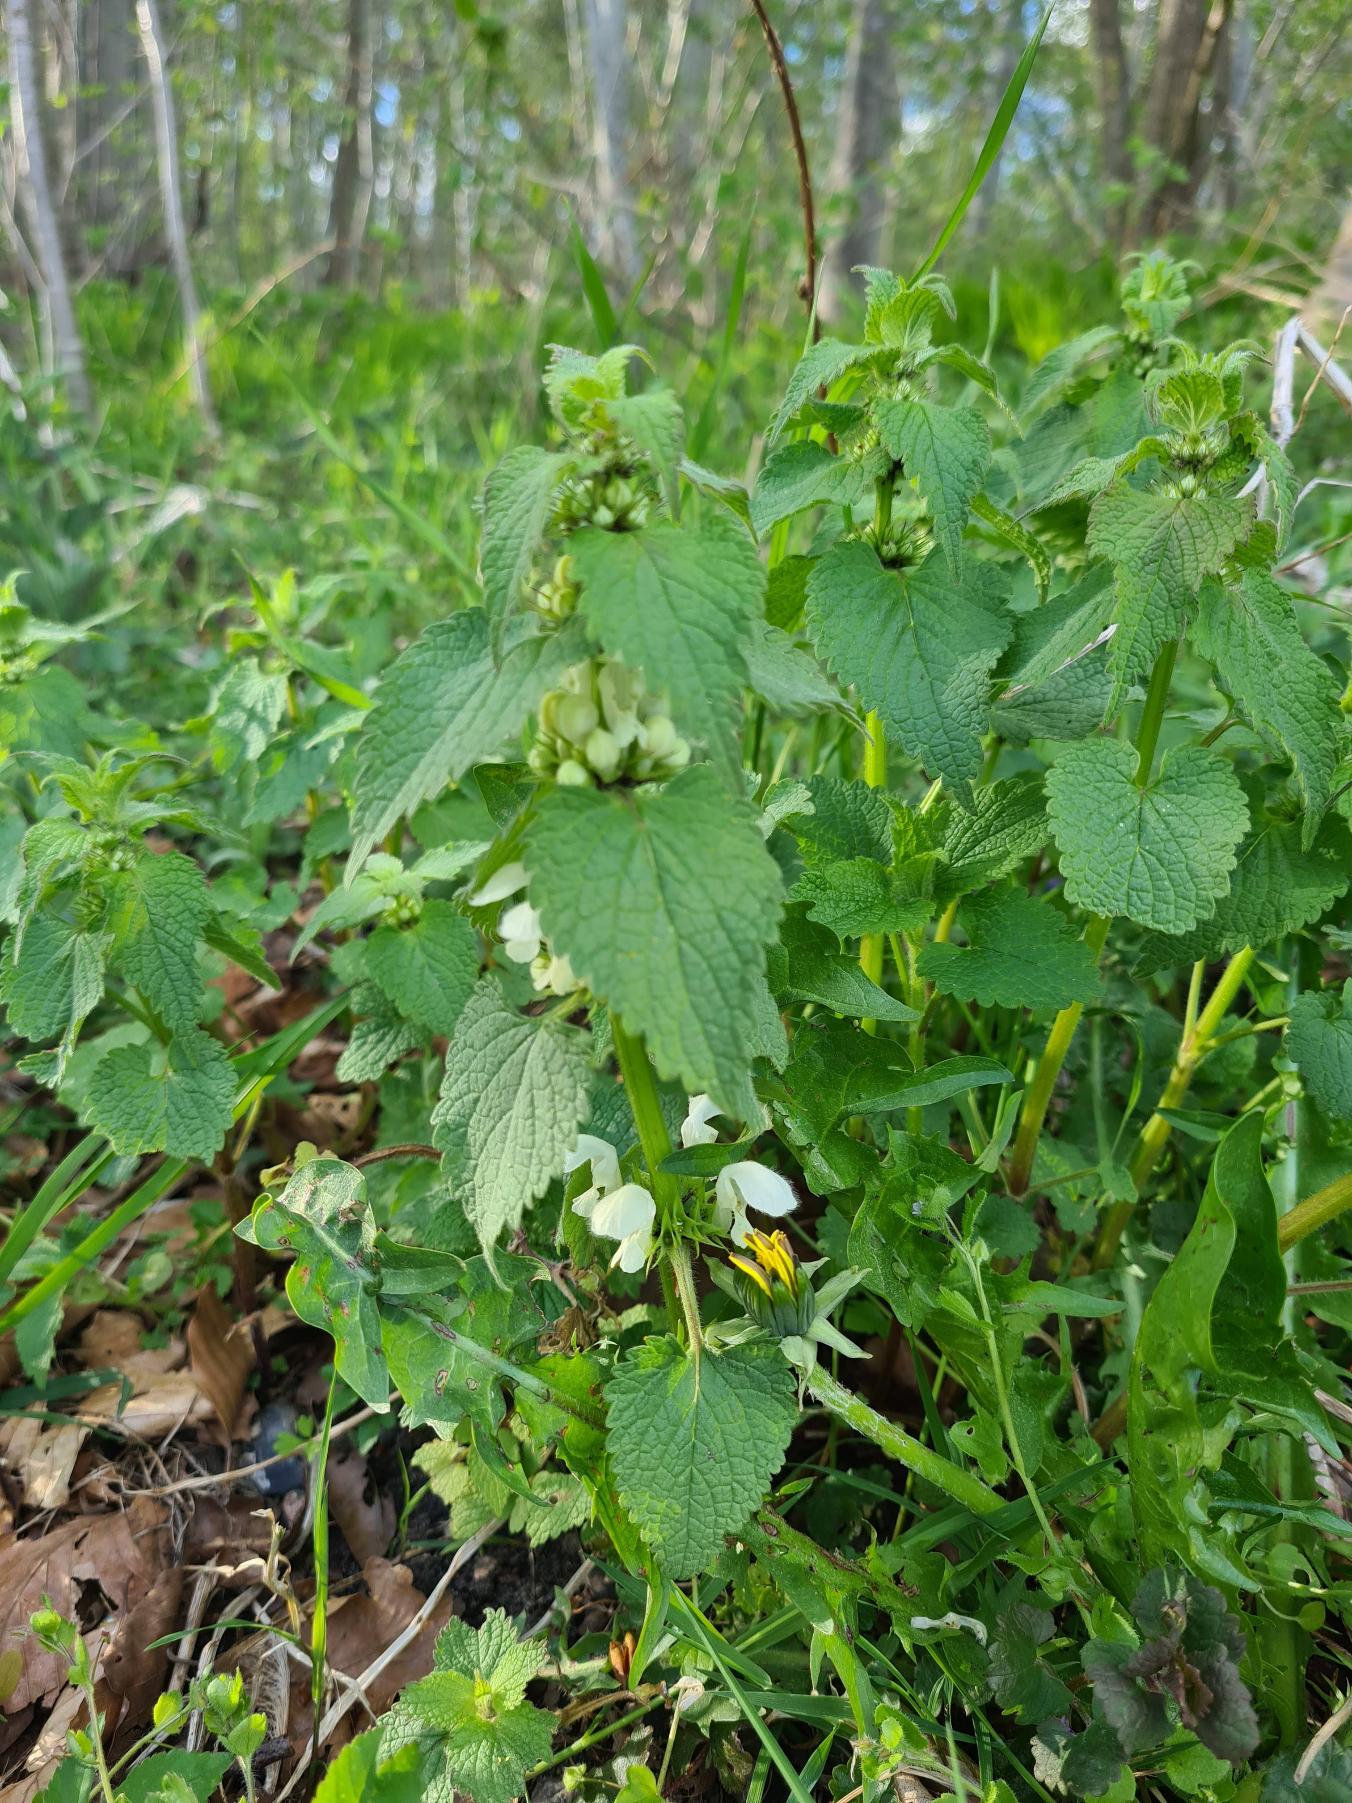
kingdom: Plantae
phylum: Tracheophyta
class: Magnoliopsida
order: Lamiales
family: Lamiaceae
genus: Lamium
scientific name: Lamium album
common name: Døvnælde
